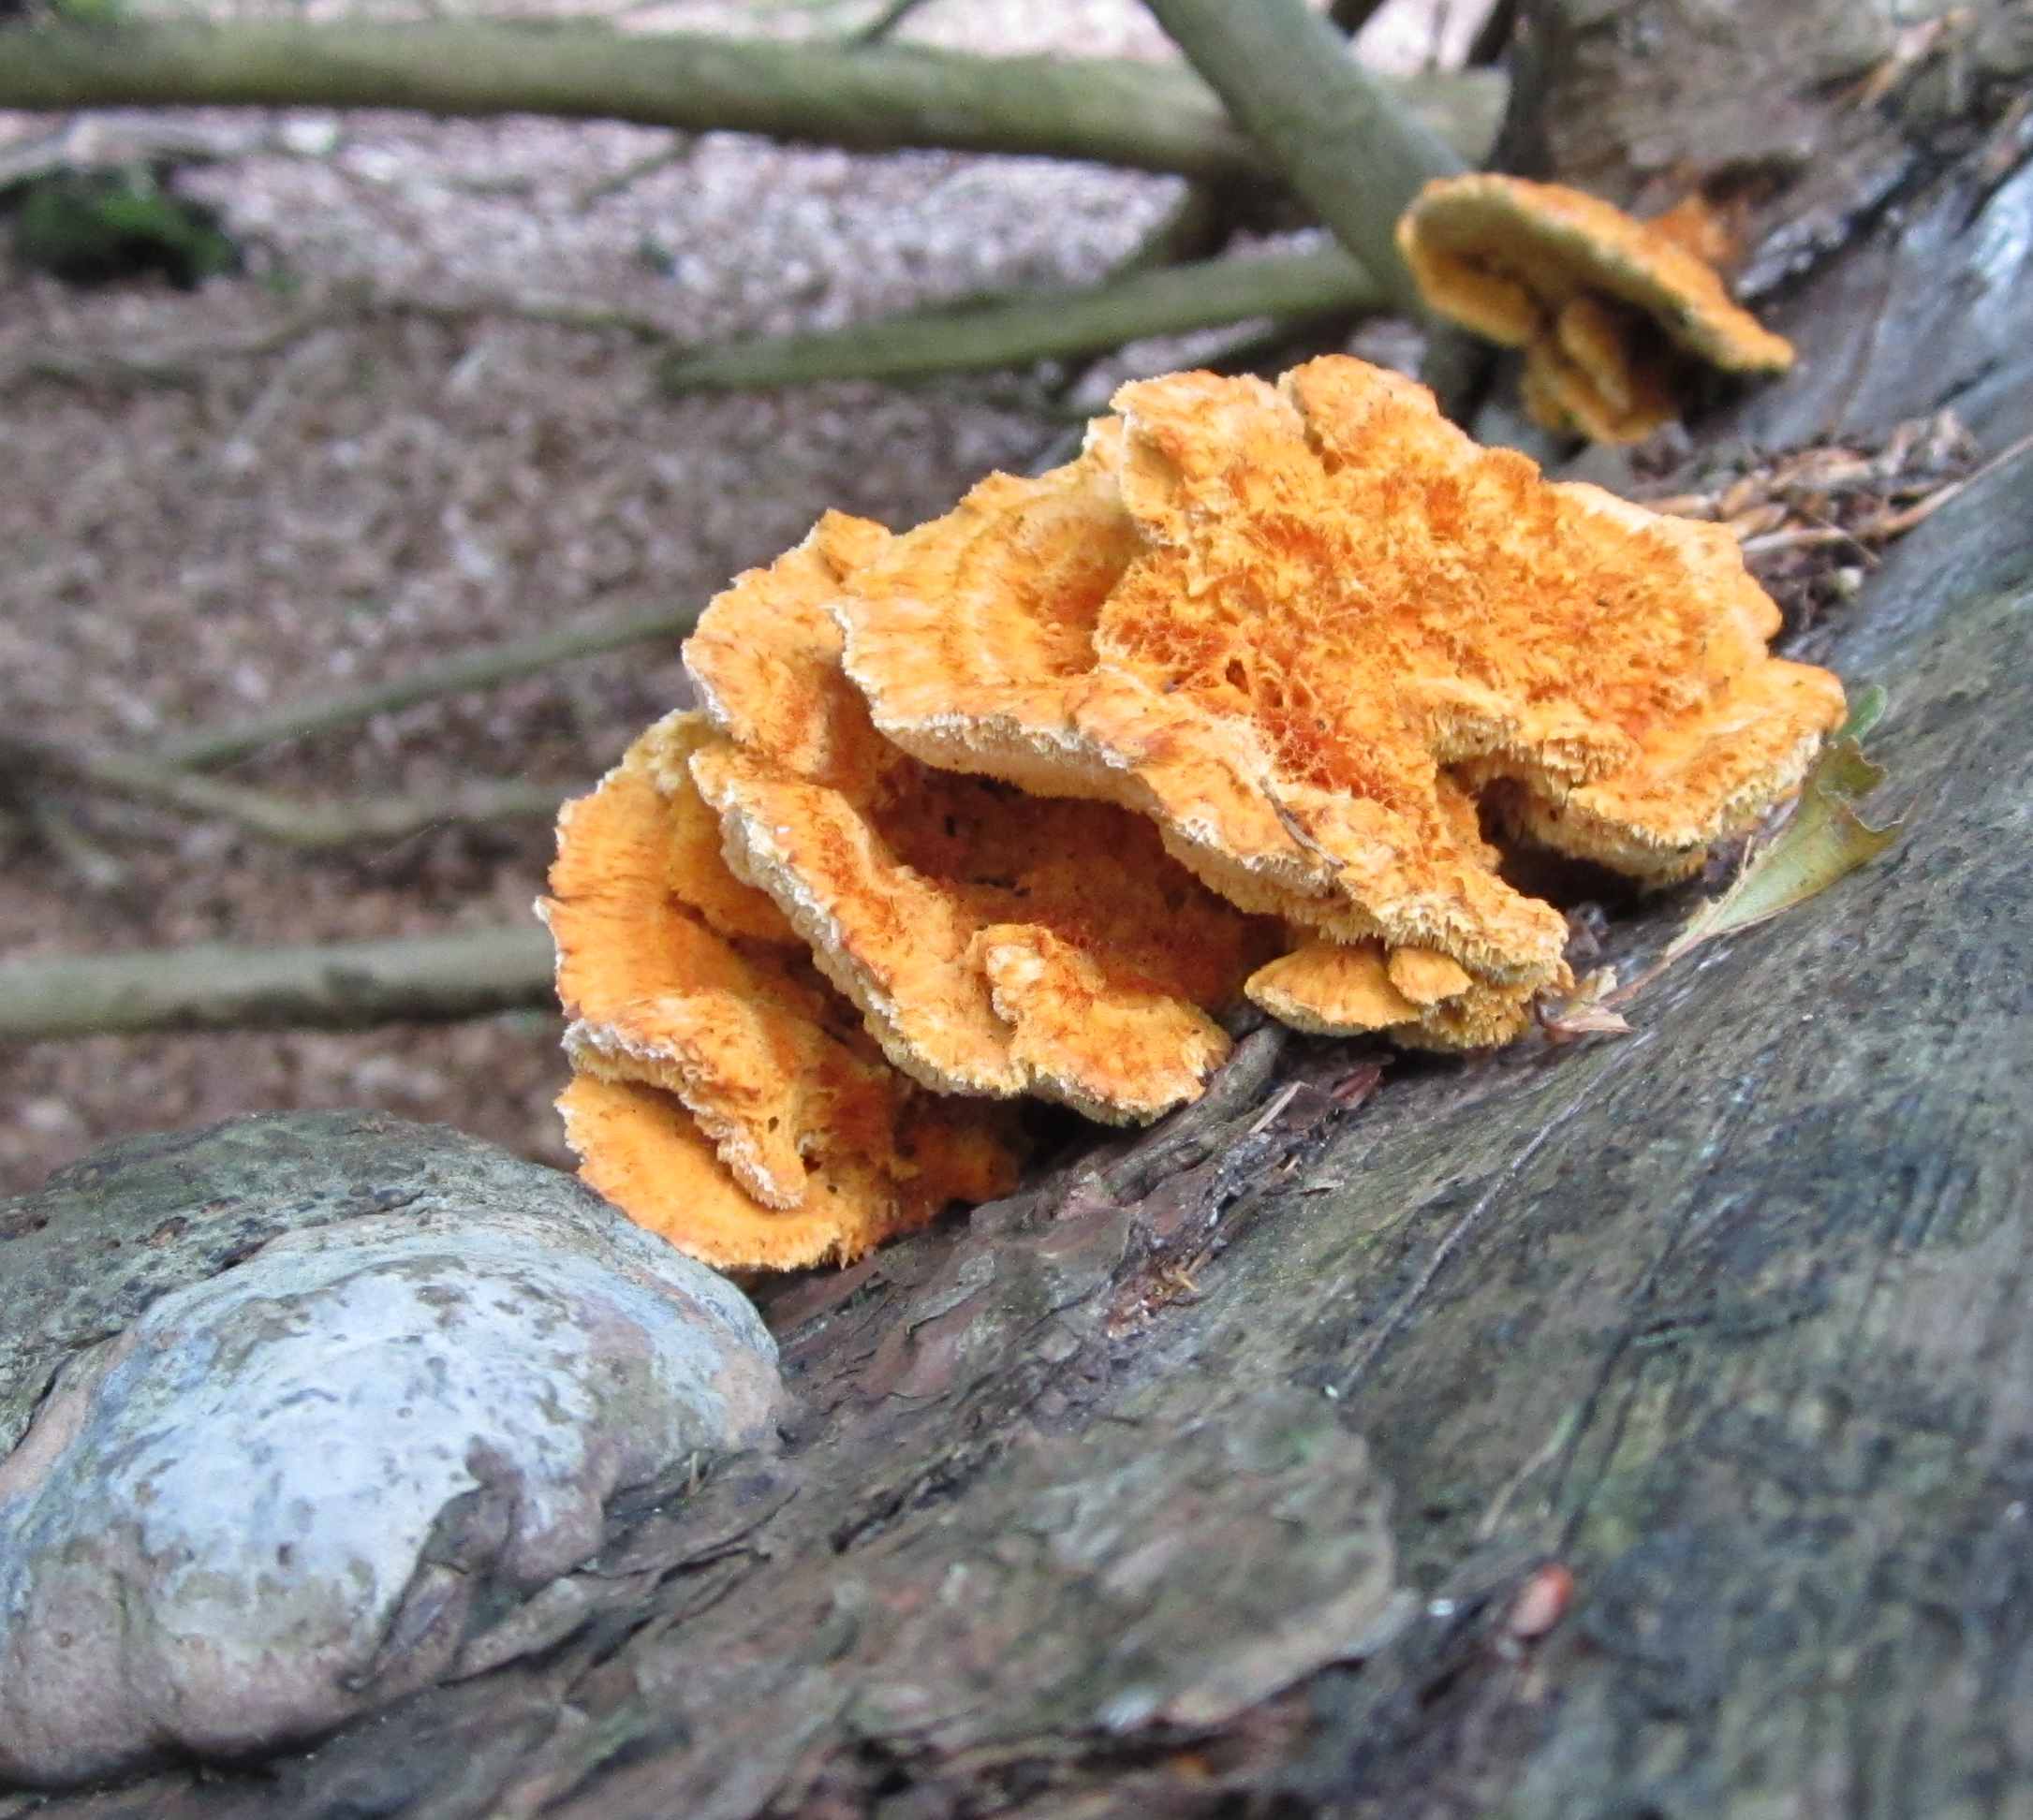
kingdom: Fungi
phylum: Basidiomycota
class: Agaricomycetes
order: Polyporales
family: Pycnoporellaceae
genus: Pycnoporellus
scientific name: Pycnoporellus fulgens
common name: flammeporesvamp
